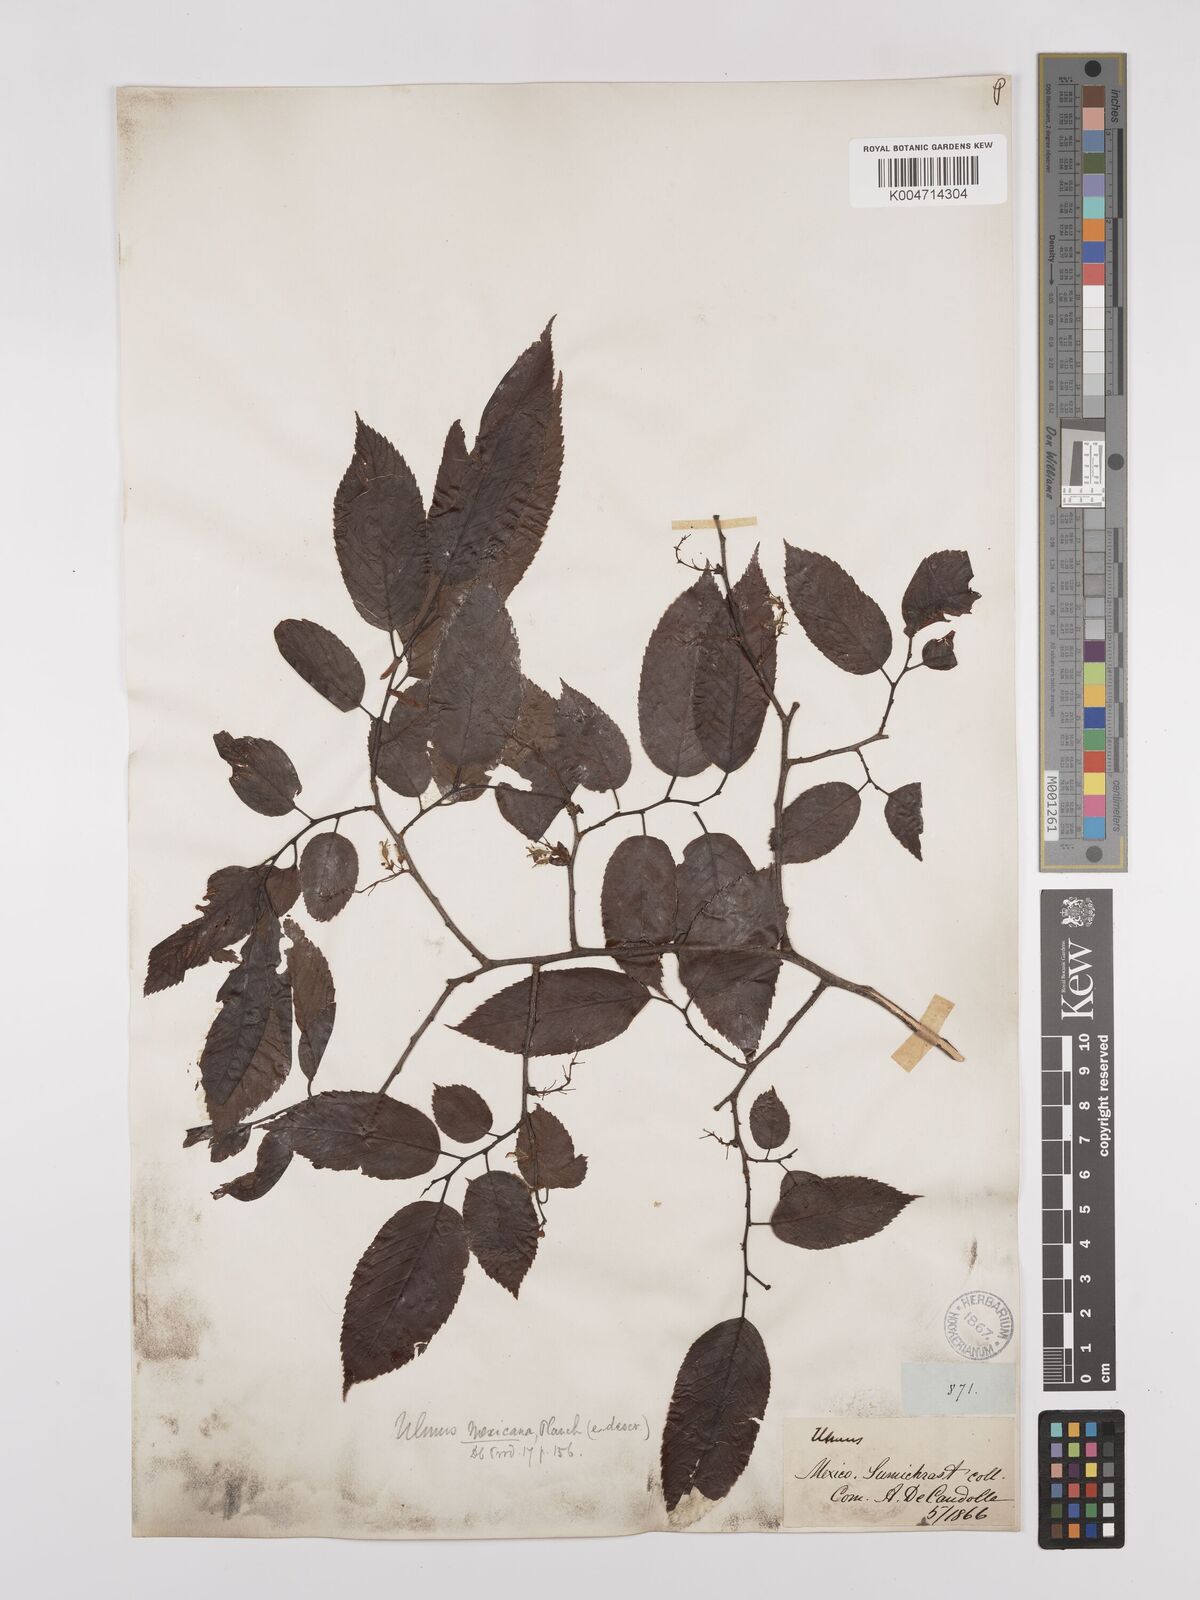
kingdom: Plantae
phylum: Tracheophyta
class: Magnoliopsida
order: Rosales
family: Ulmaceae
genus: Ulmus
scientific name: Ulmus mexicana
